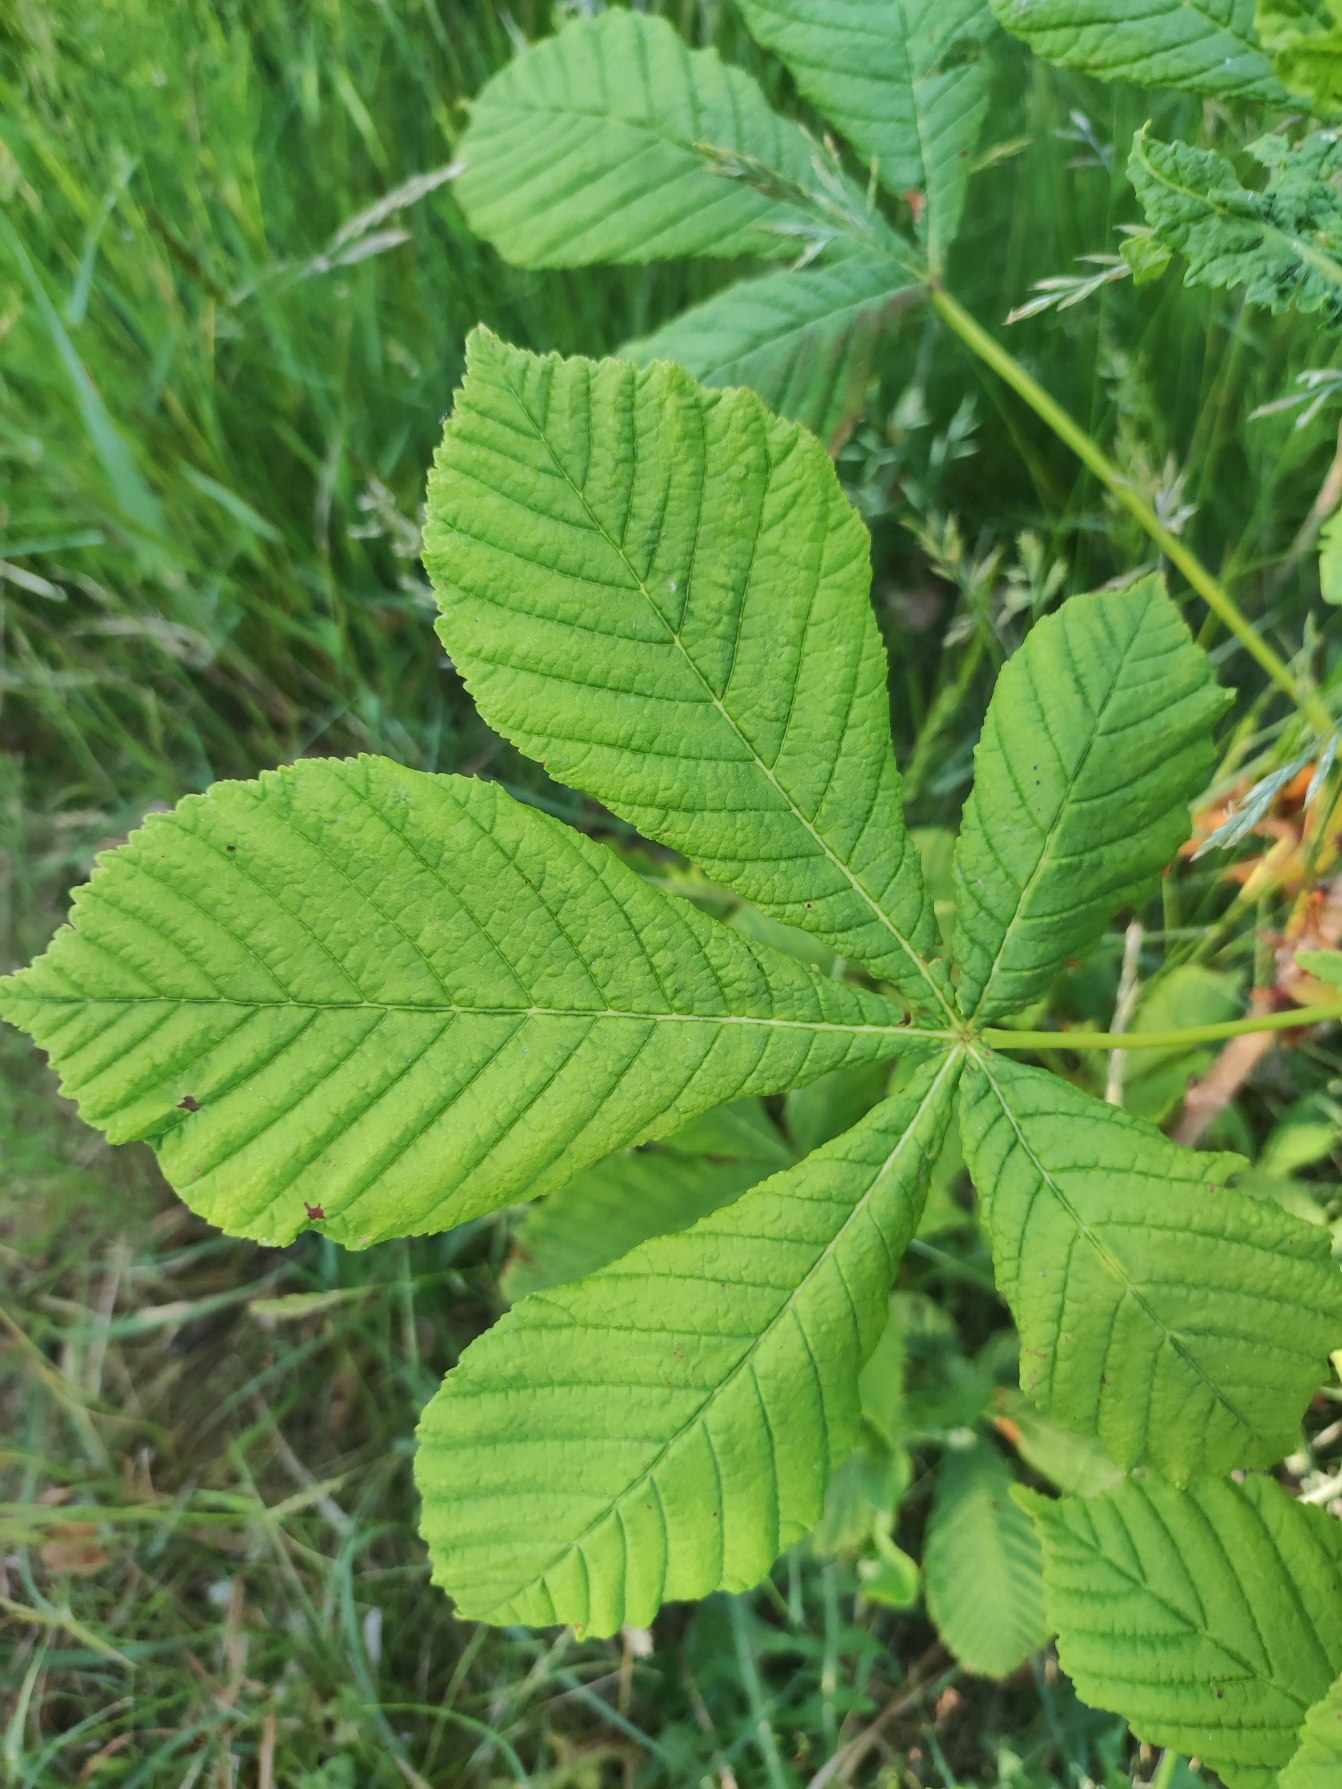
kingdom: Plantae
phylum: Tracheophyta
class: Magnoliopsida
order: Sapindales
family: Sapindaceae
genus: Aesculus
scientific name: Aesculus hippocastanum
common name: Hestekastanie
